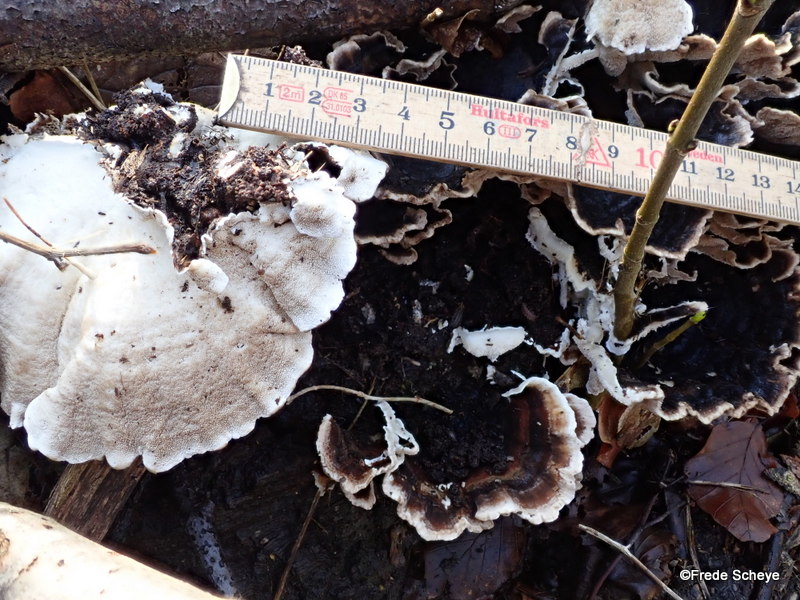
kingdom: Fungi
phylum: Basidiomycota
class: Agaricomycetes
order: Polyporales
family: Polyporaceae
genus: Trametes
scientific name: Trametes versicolor
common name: broget læderporesvamp
